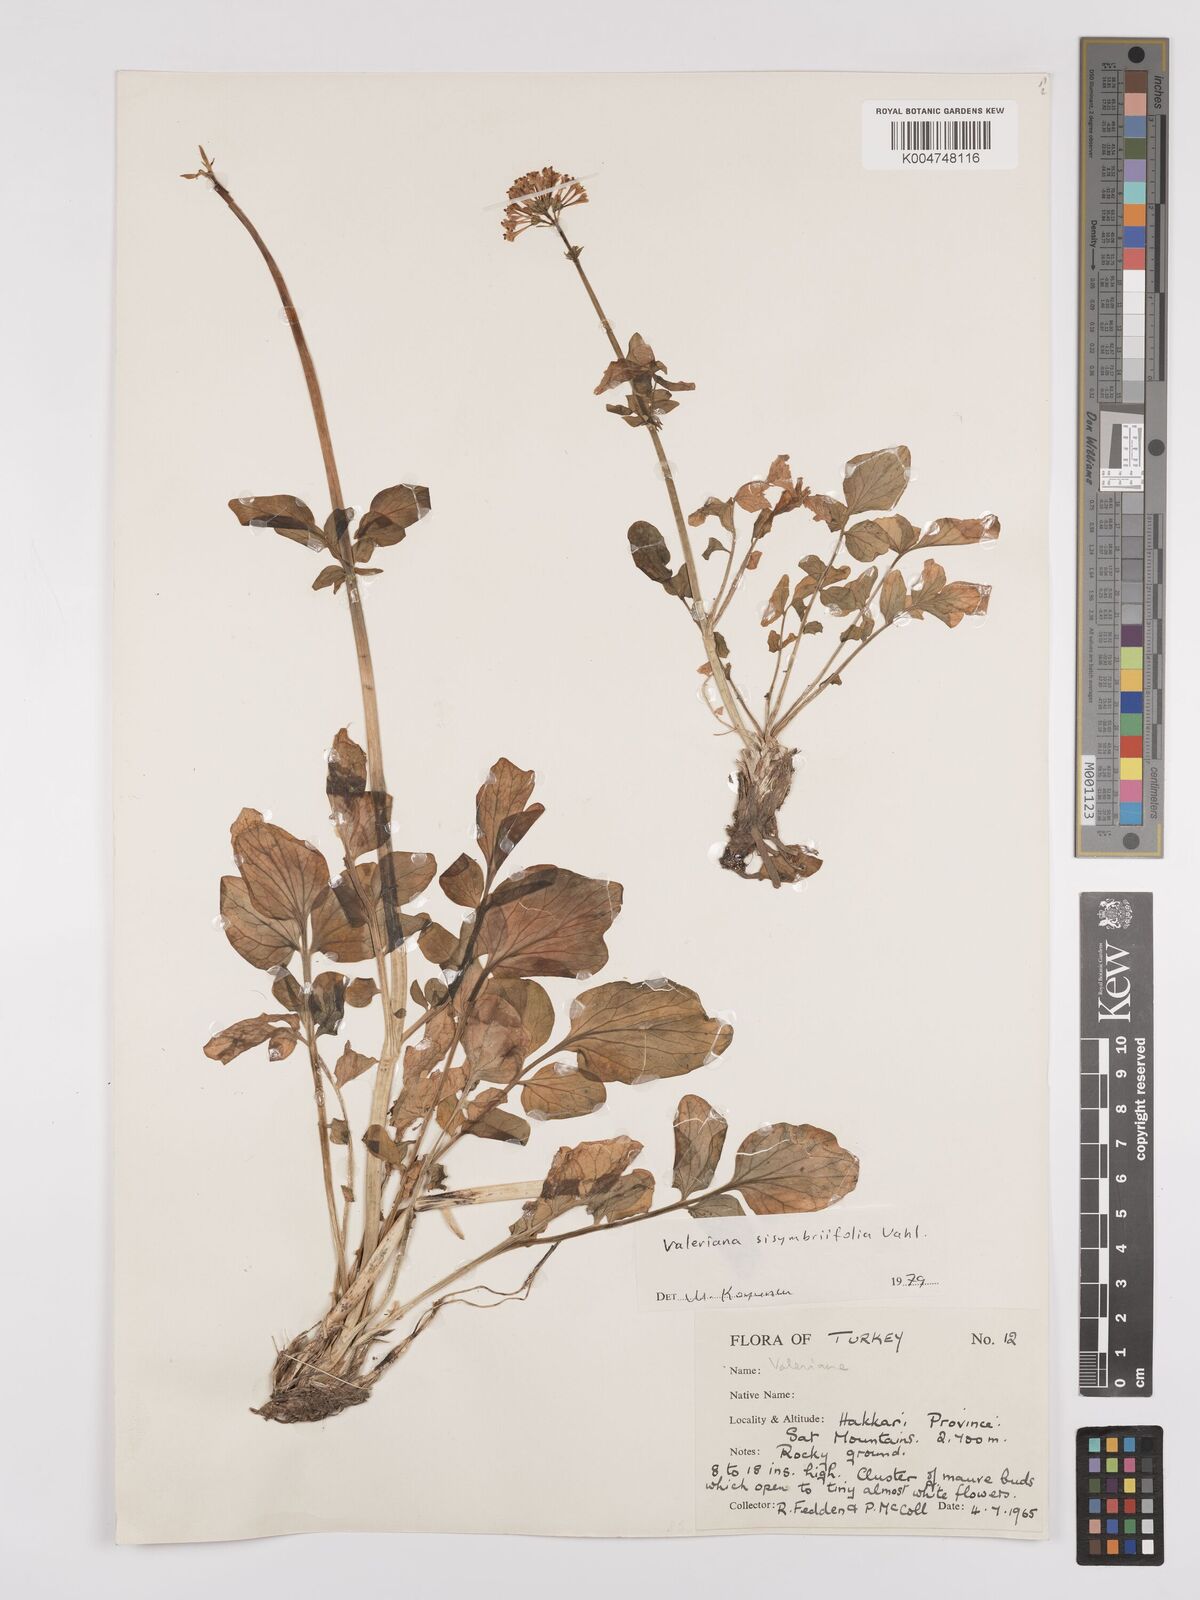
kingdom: Plantae
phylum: Tracheophyta
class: Magnoliopsida
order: Dipsacales
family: Caprifoliaceae
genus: Valeriana
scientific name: Valeriana
